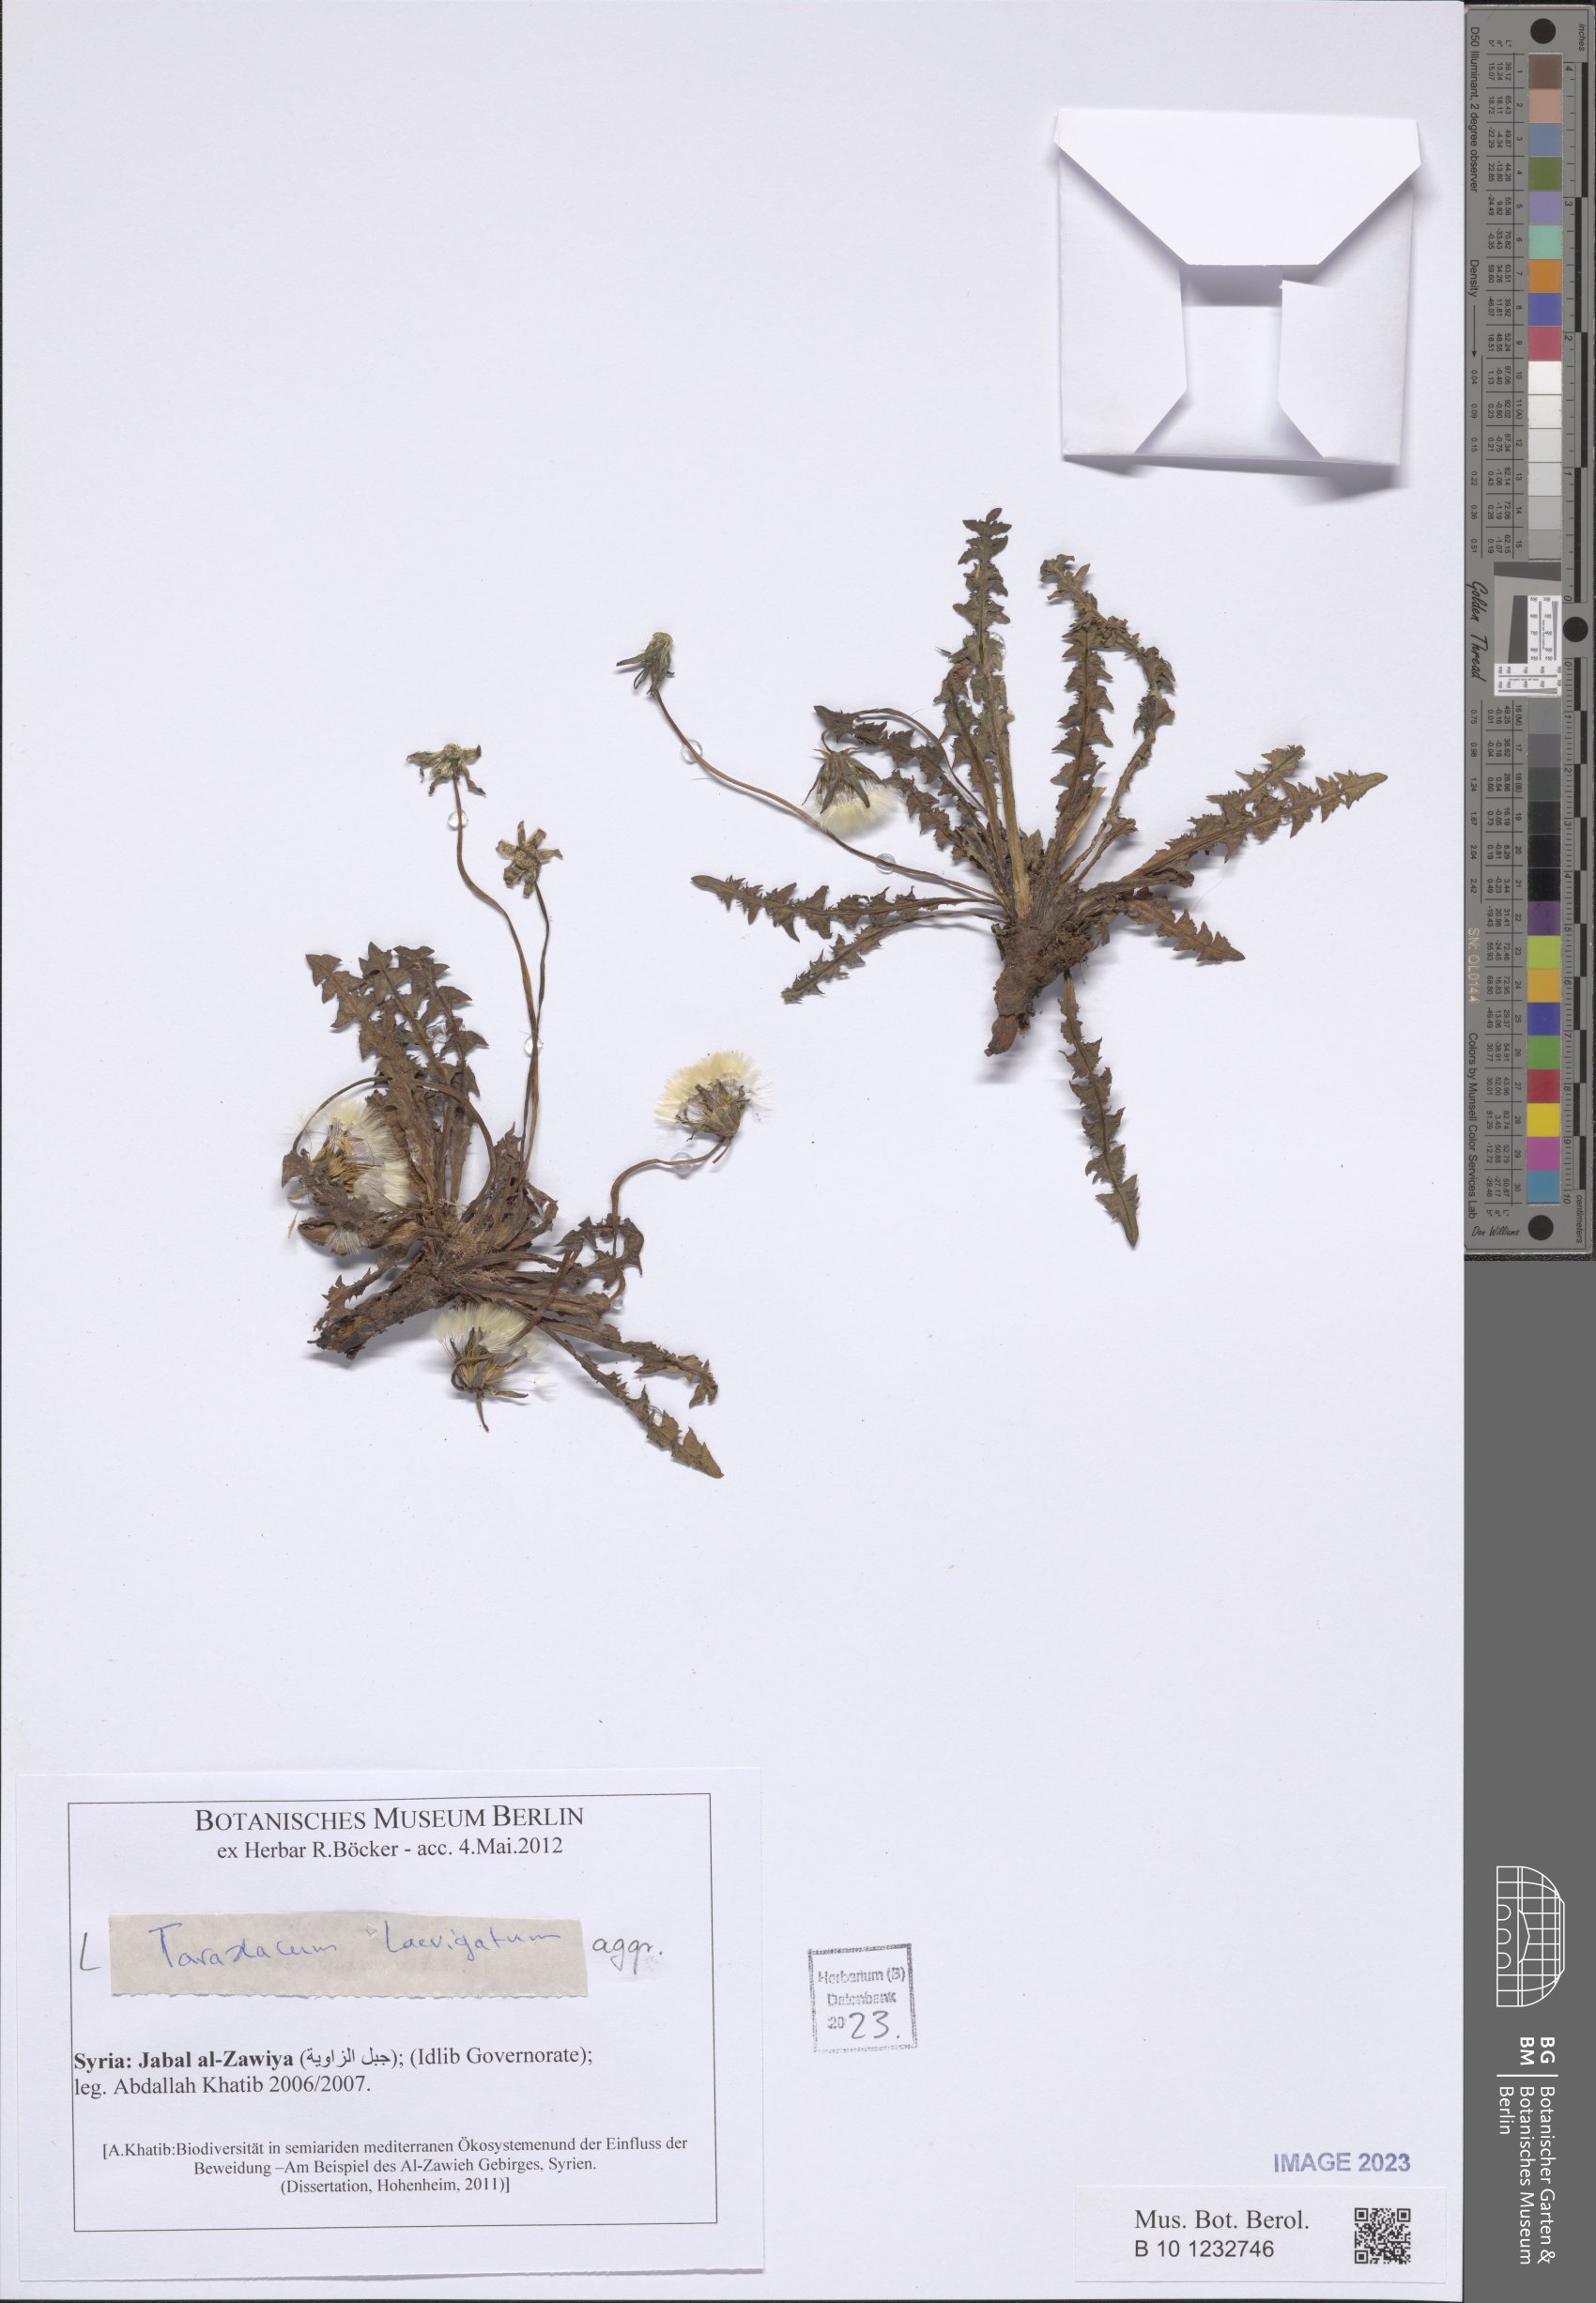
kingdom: Plantae
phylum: Tracheophyta
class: Magnoliopsida
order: Asterales
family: Asteraceae
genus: Taraxacum
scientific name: Taraxacum erythrospermum
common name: Rock dandelion
